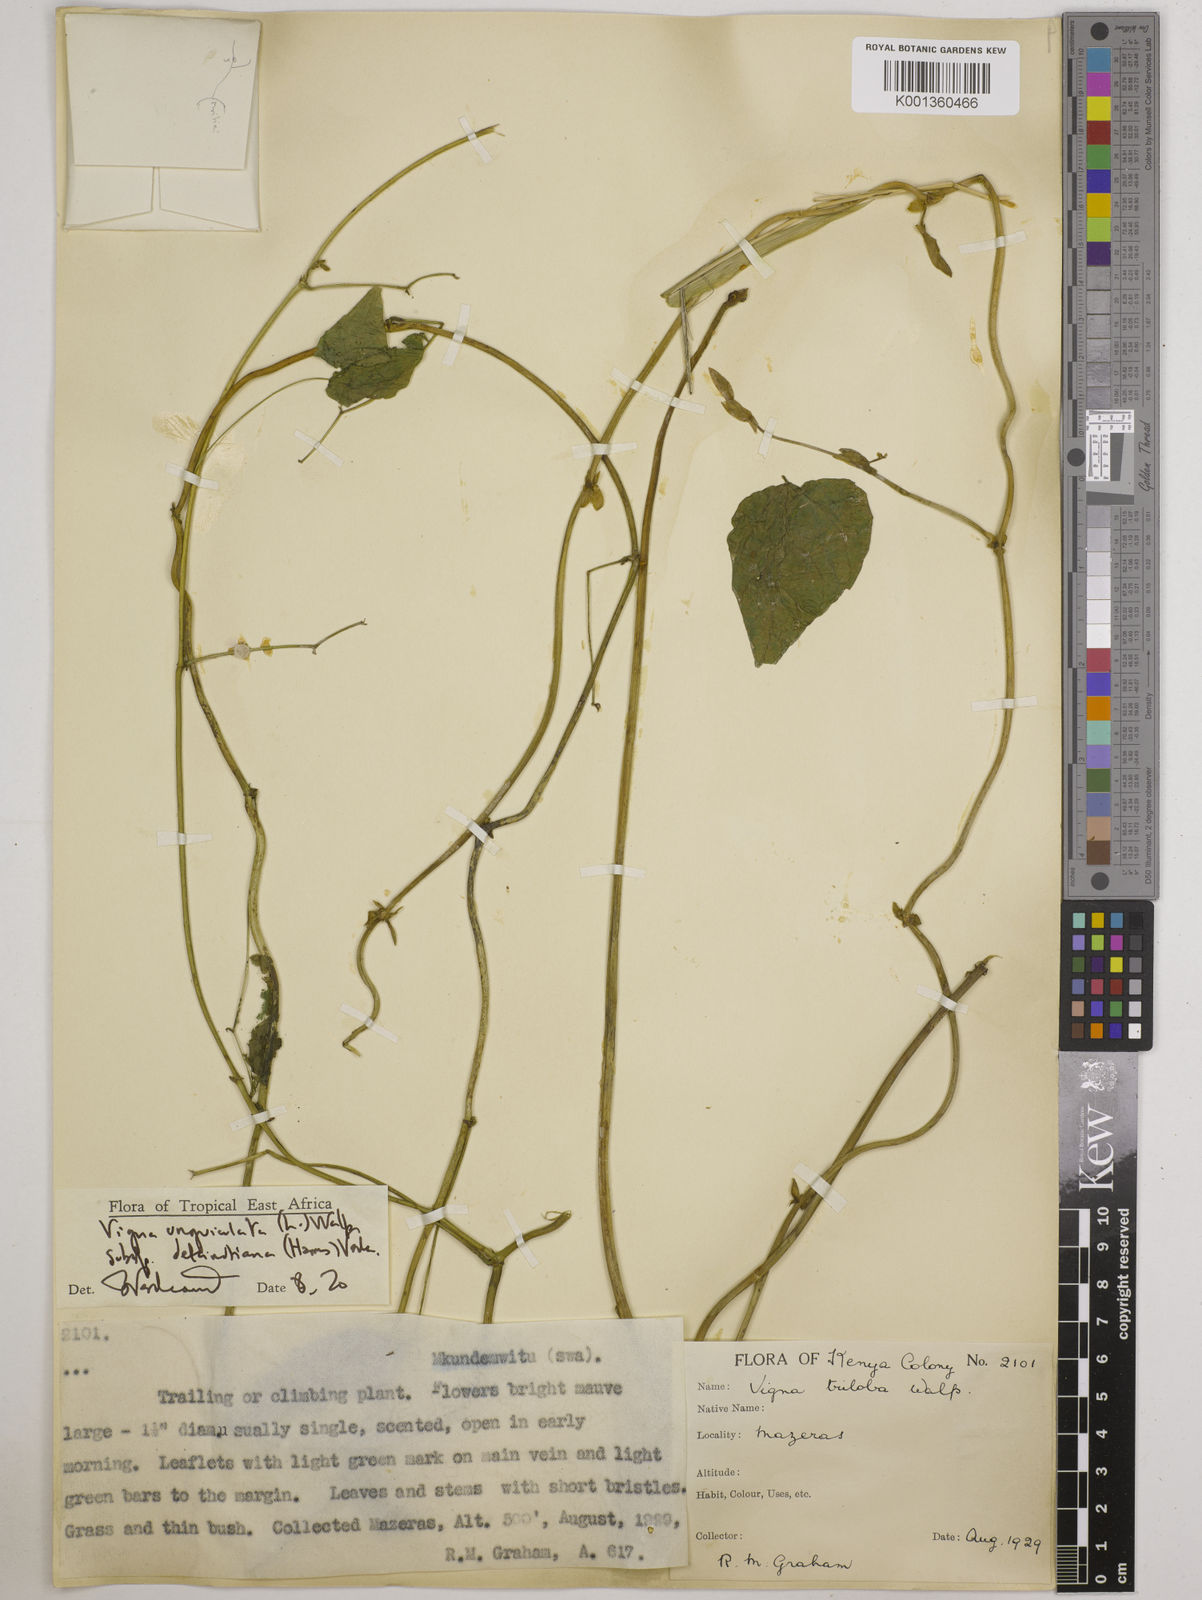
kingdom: Plantae
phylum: Tracheophyta
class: Magnoliopsida
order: Fabales
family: Fabaceae
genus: Vigna
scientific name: Vigna
